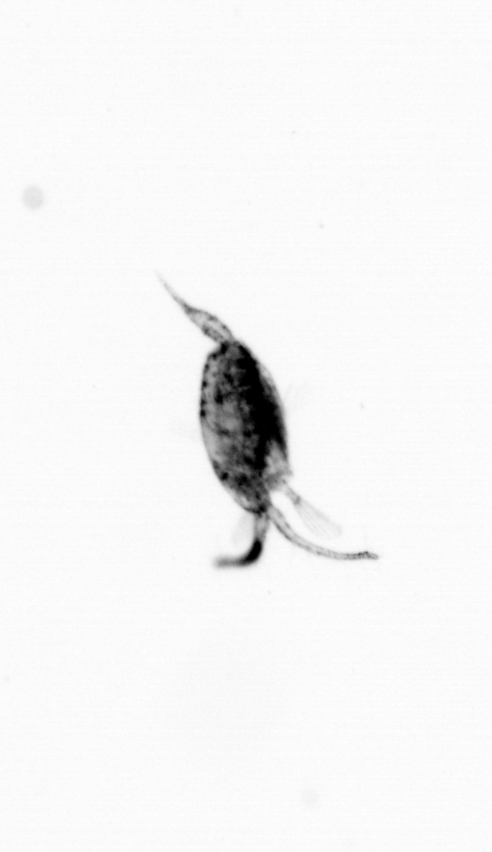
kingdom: Animalia
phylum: Arthropoda
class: Copepoda
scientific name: Copepoda
